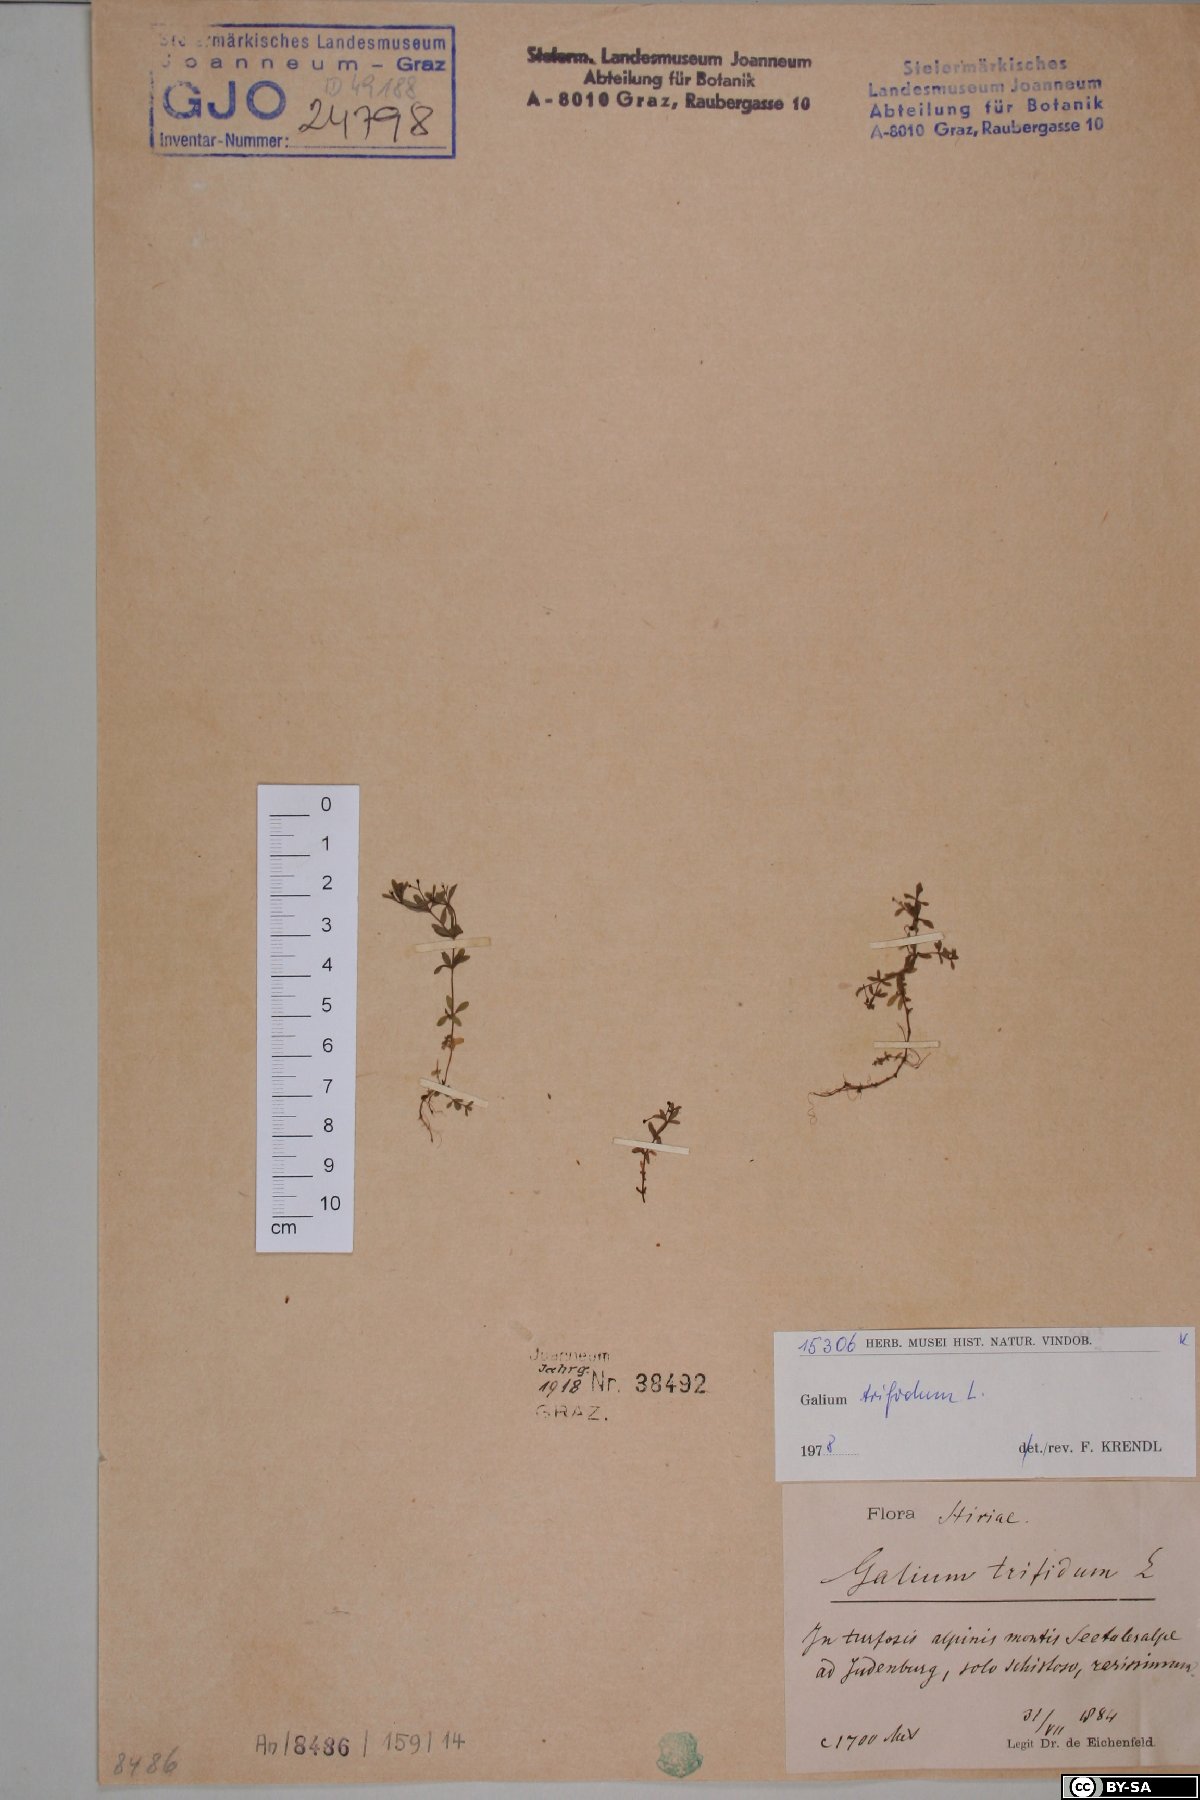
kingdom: Plantae
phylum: Tracheophyta
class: Magnoliopsida
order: Gentianales
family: Rubiaceae
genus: Galium
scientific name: Galium trifidum
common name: Small bedstraw
